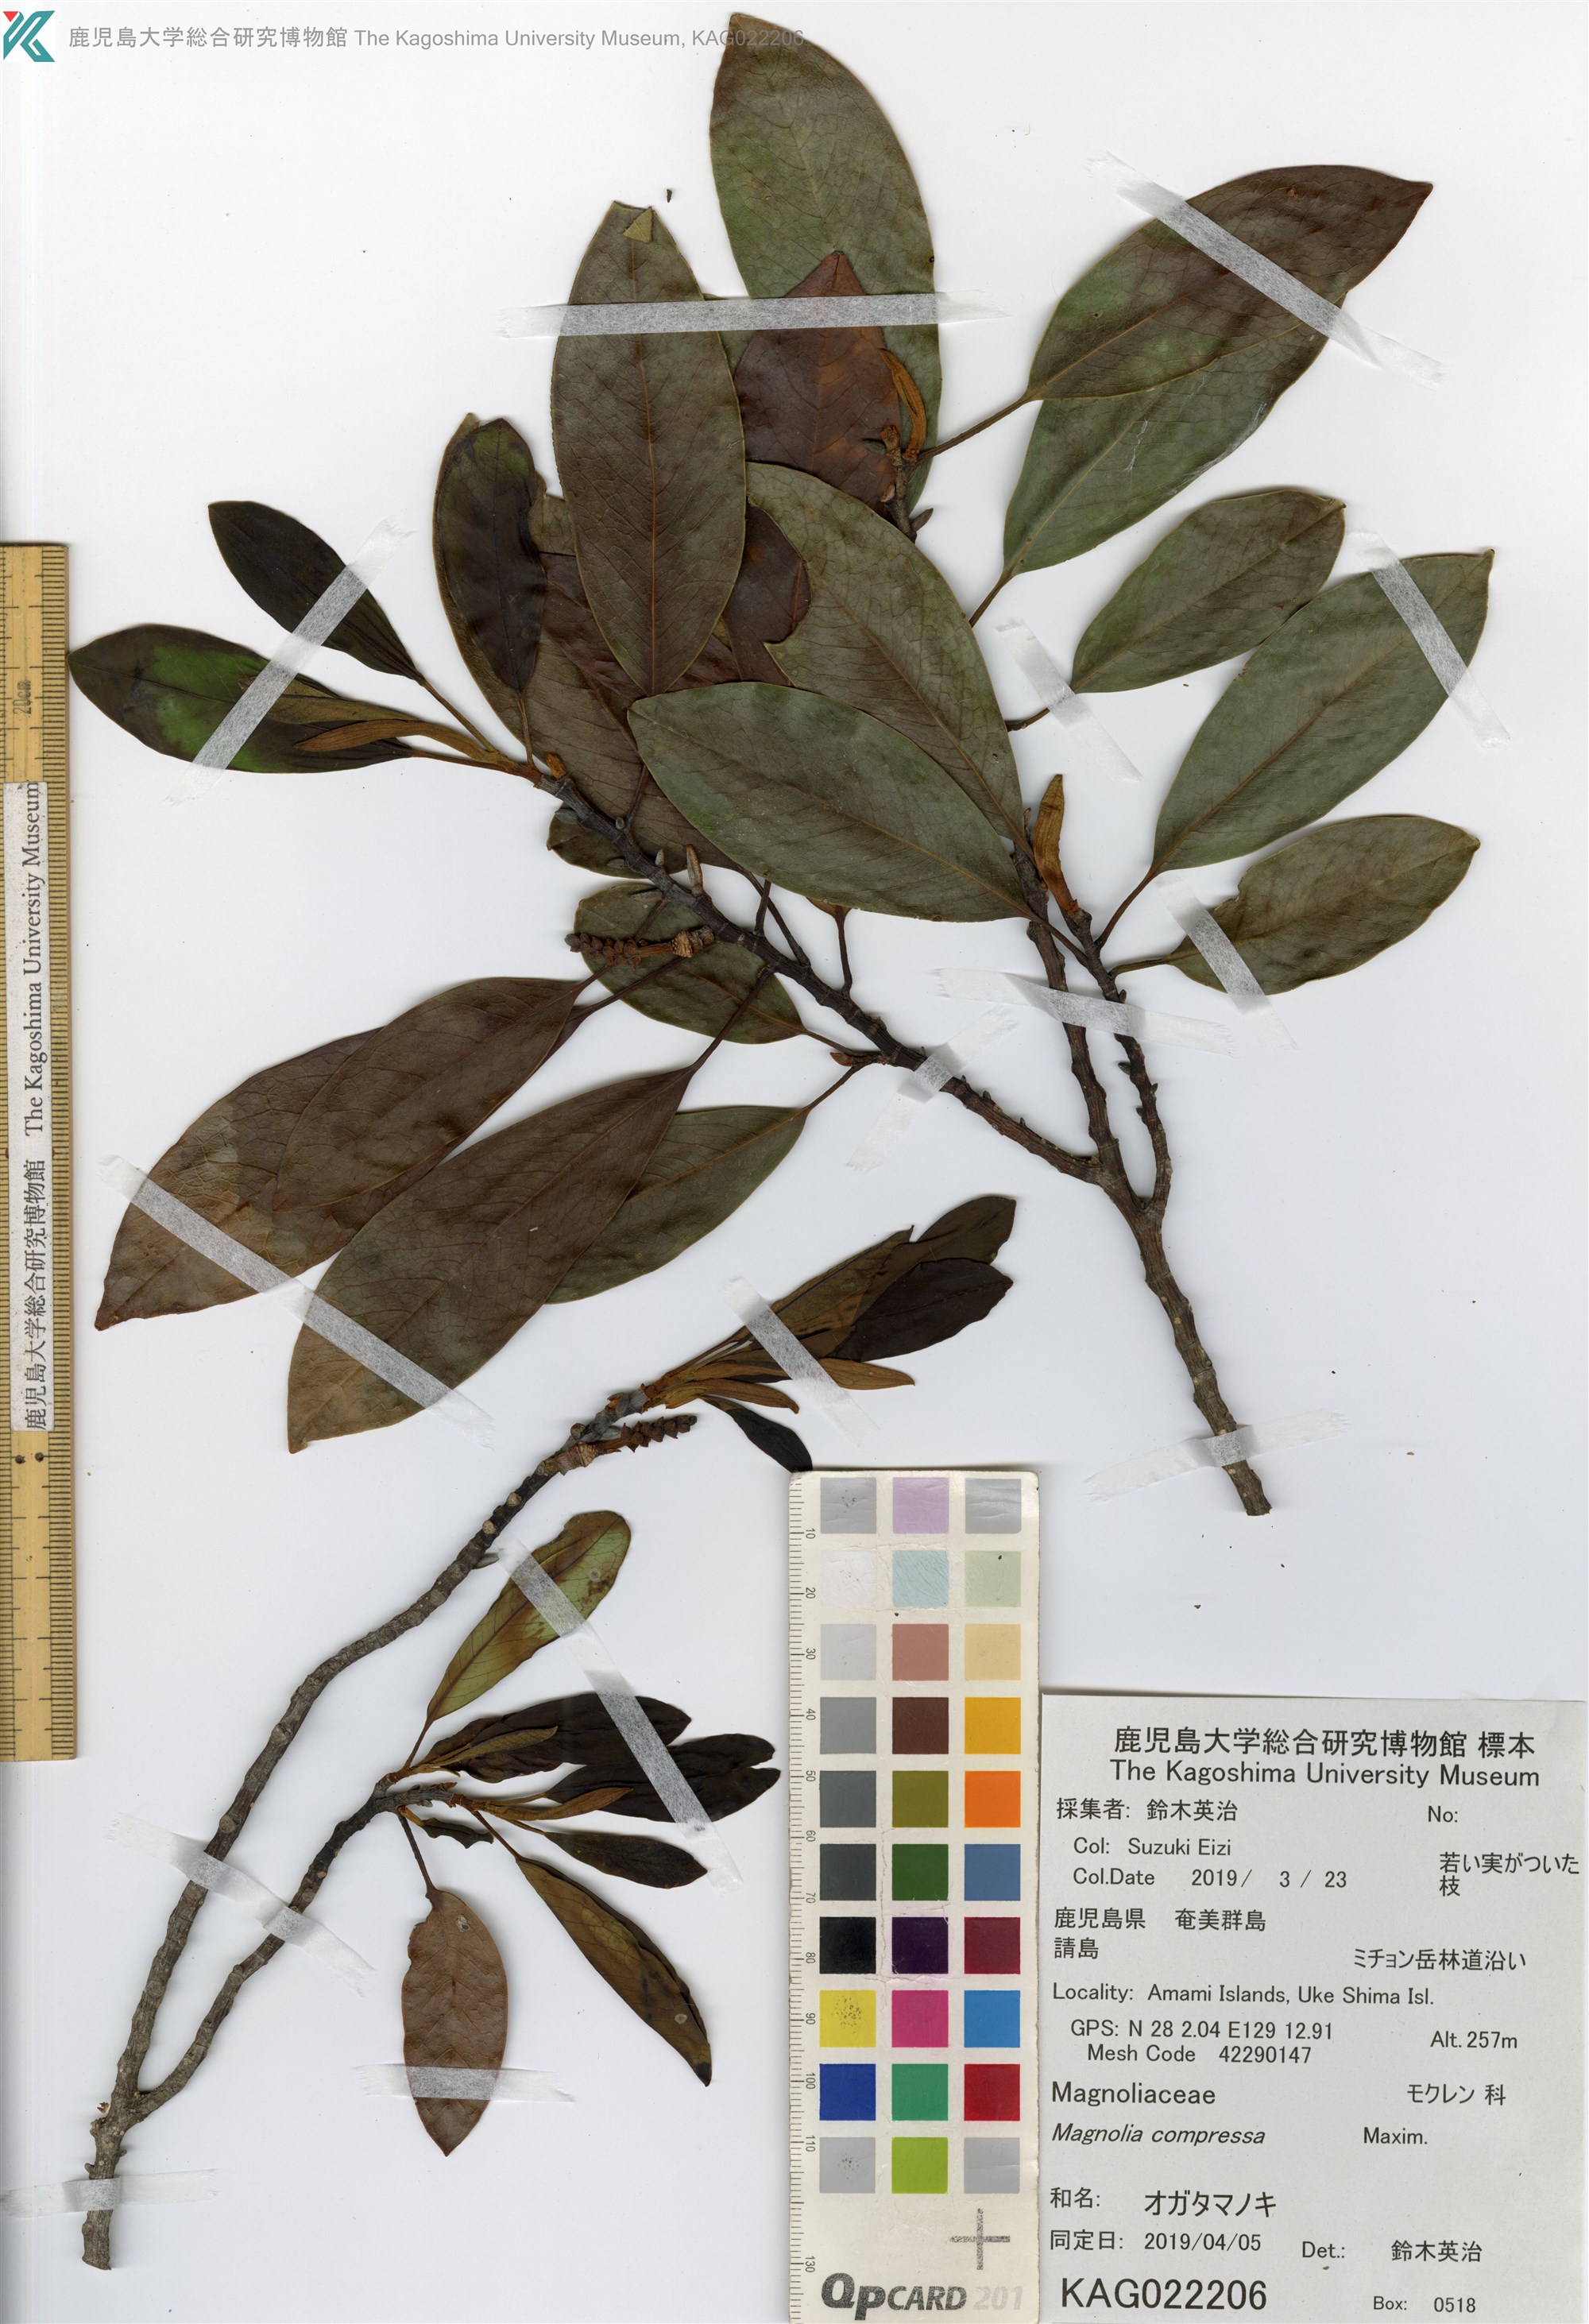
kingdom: Plantae
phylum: Tracheophyta
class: Magnoliopsida
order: Magnoliales
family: Magnoliaceae
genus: Magnolia
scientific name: Magnolia compressa
